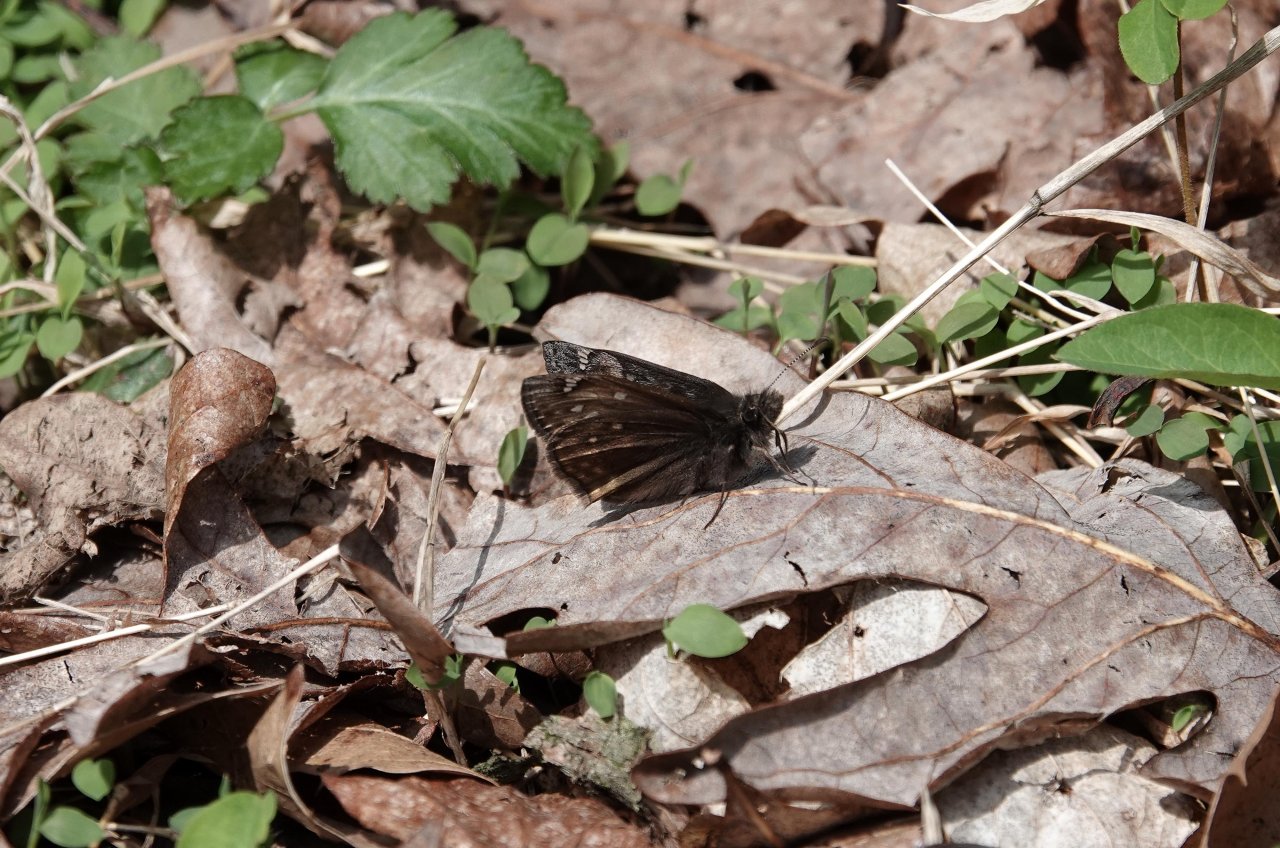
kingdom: Animalia
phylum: Arthropoda
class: Insecta
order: Lepidoptera
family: Hesperiidae
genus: Gesta
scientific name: Gesta
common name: Juvenal's Duskywing
